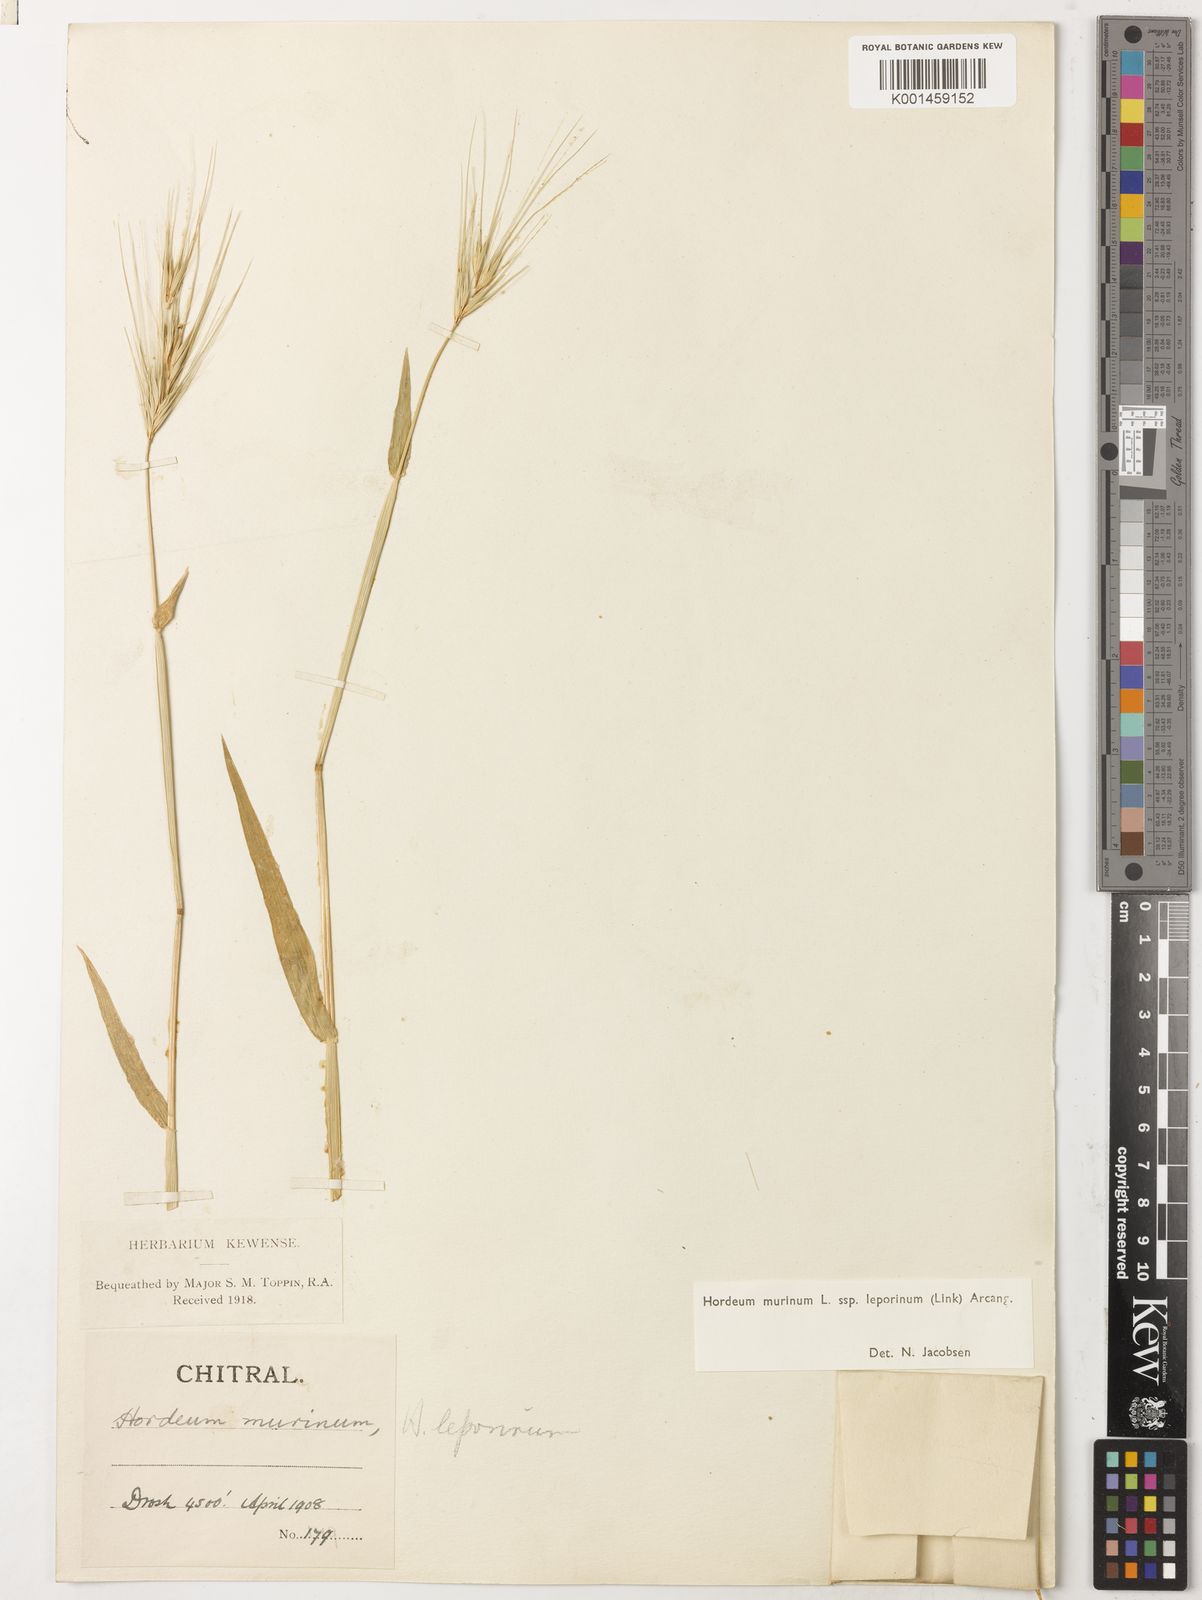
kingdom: Plantae
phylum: Tracheophyta
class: Liliopsida
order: Poales
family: Poaceae
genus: Hordeum
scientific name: Hordeum murinum
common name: Wall barley
